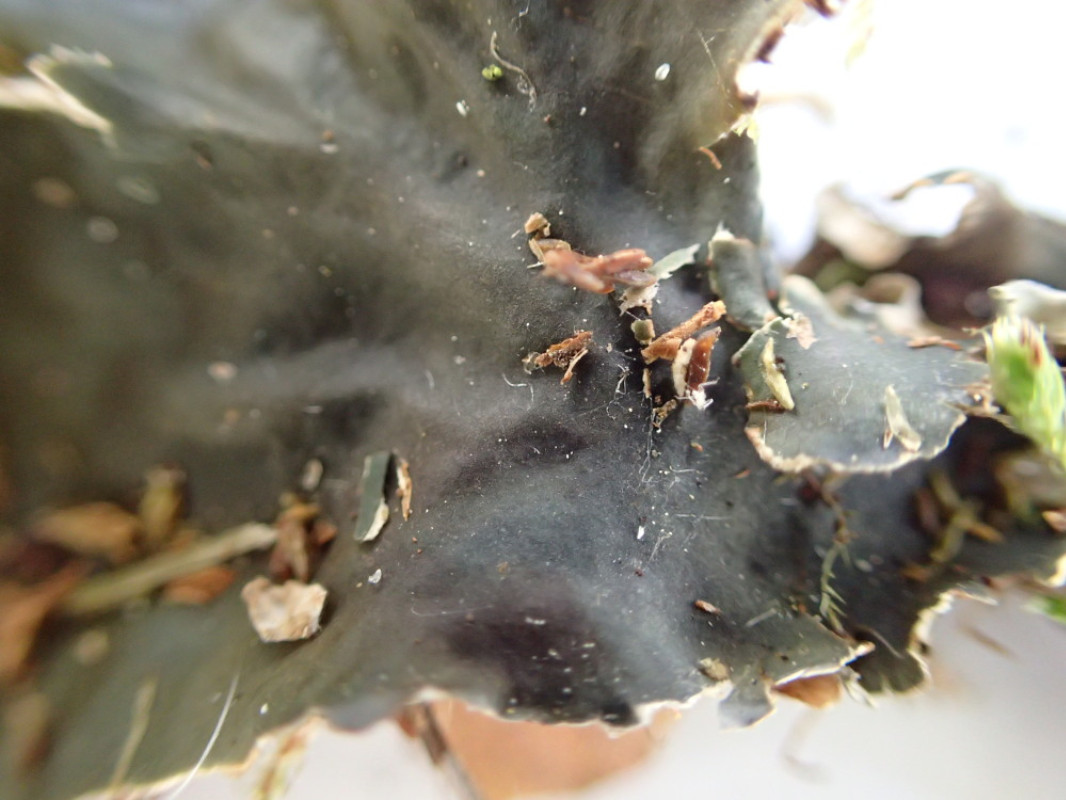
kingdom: Fungi
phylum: Ascomycota
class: Lecanoromycetes
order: Peltigerales
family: Peltigeraceae
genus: Peltigera
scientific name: Peltigera hymenina
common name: hinde-skjoldlav
